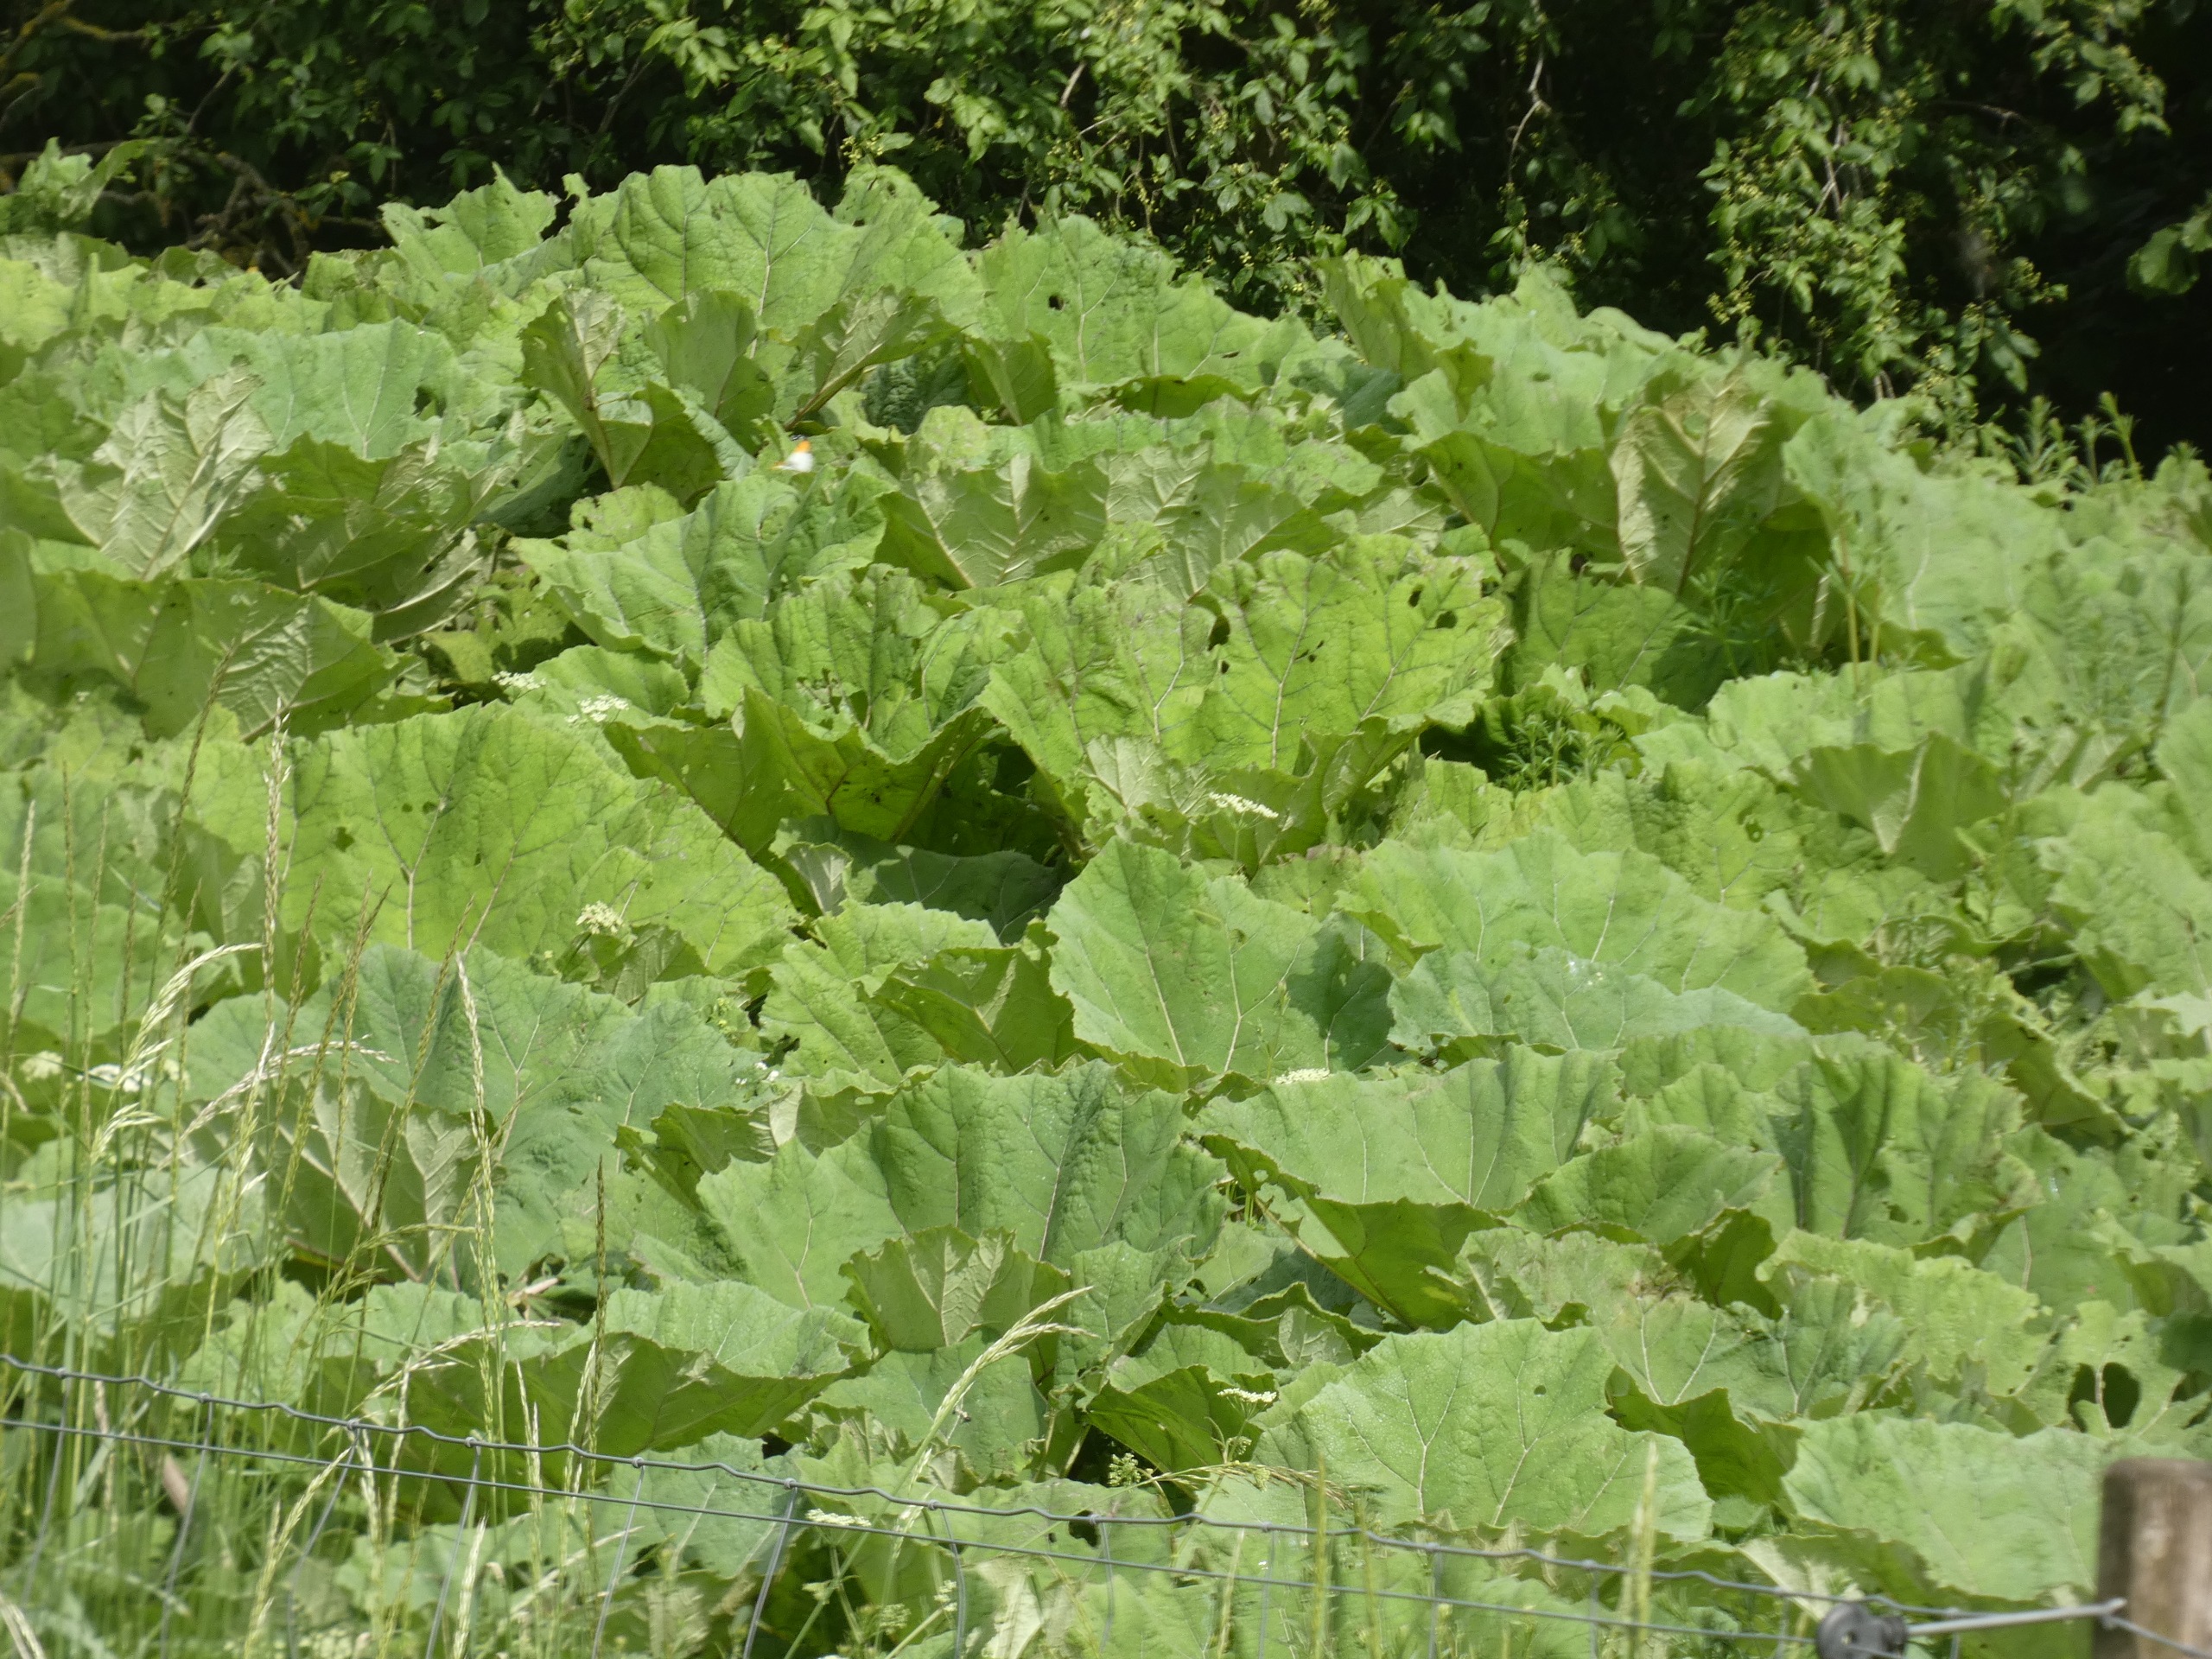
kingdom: Animalia
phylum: Arthropoda
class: Insecta
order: Lepidoptera
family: Pieridae
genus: Anthocharis
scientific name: Anthocharis cardamines
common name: Aurora
